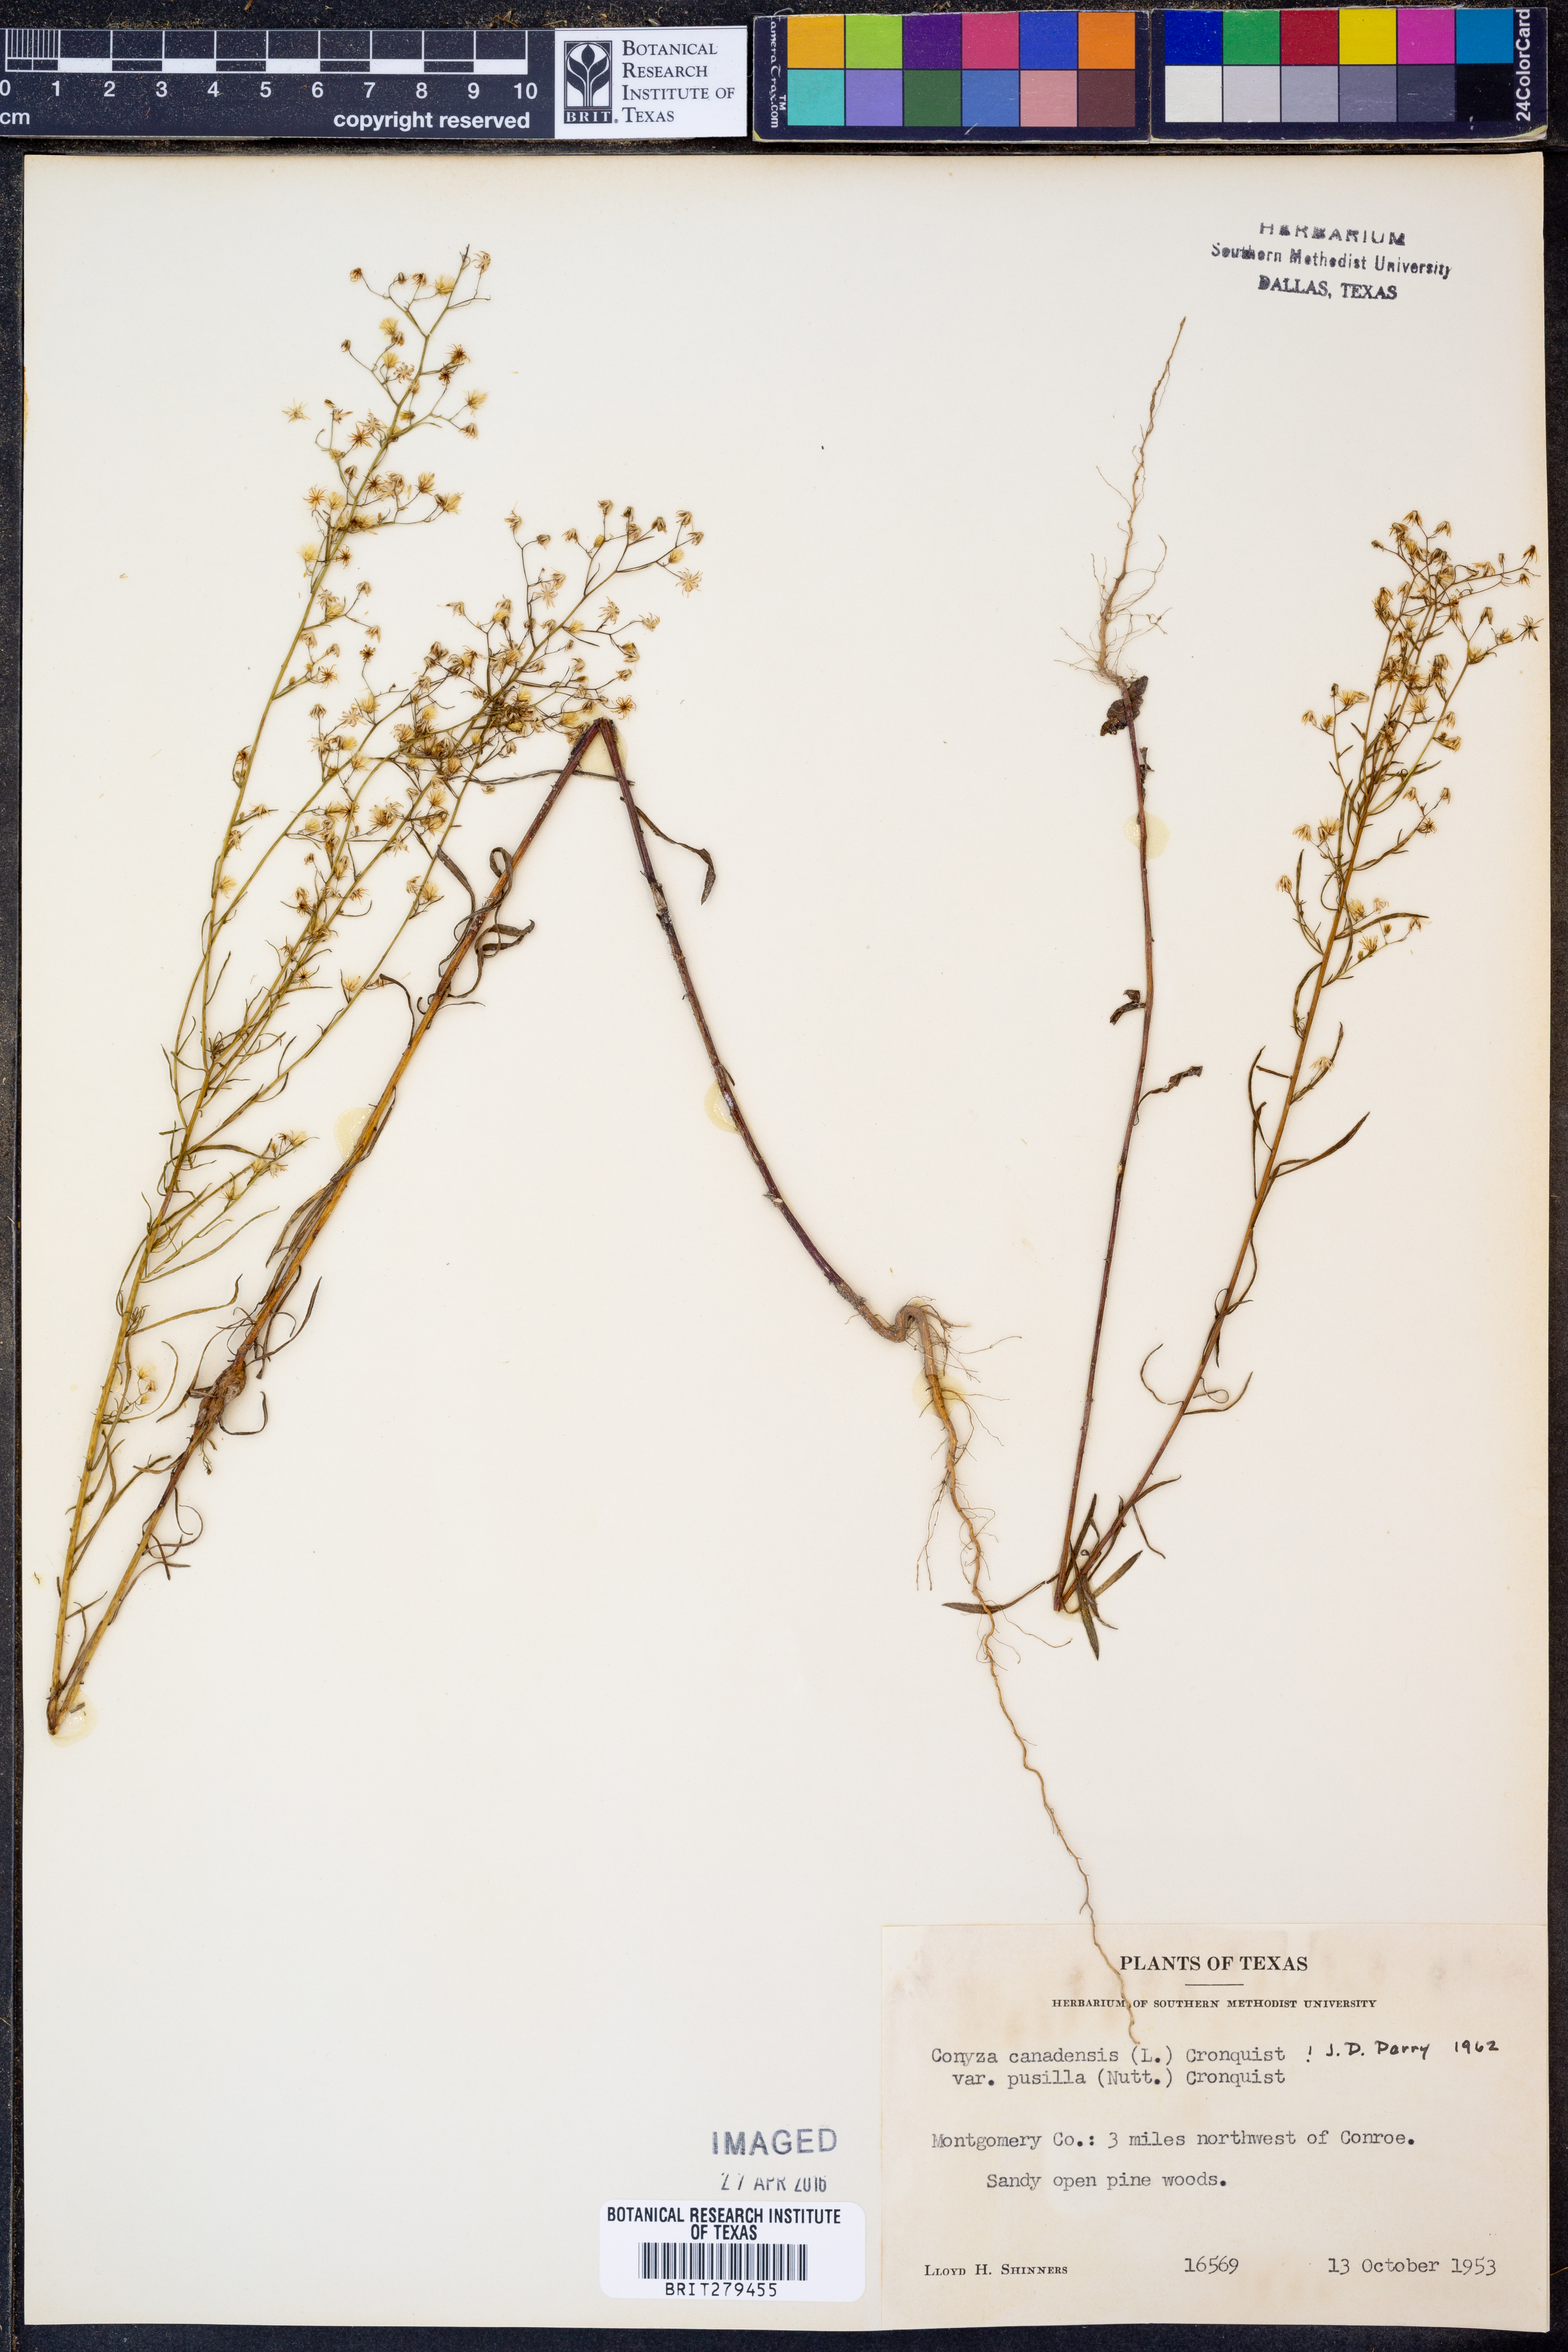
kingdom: Plantae
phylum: Tracheophyta
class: Magnoliopsida
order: Asterales
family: Asteraceae
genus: Erigeron
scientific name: Erigeron canadensis
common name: Canadian fleabane
